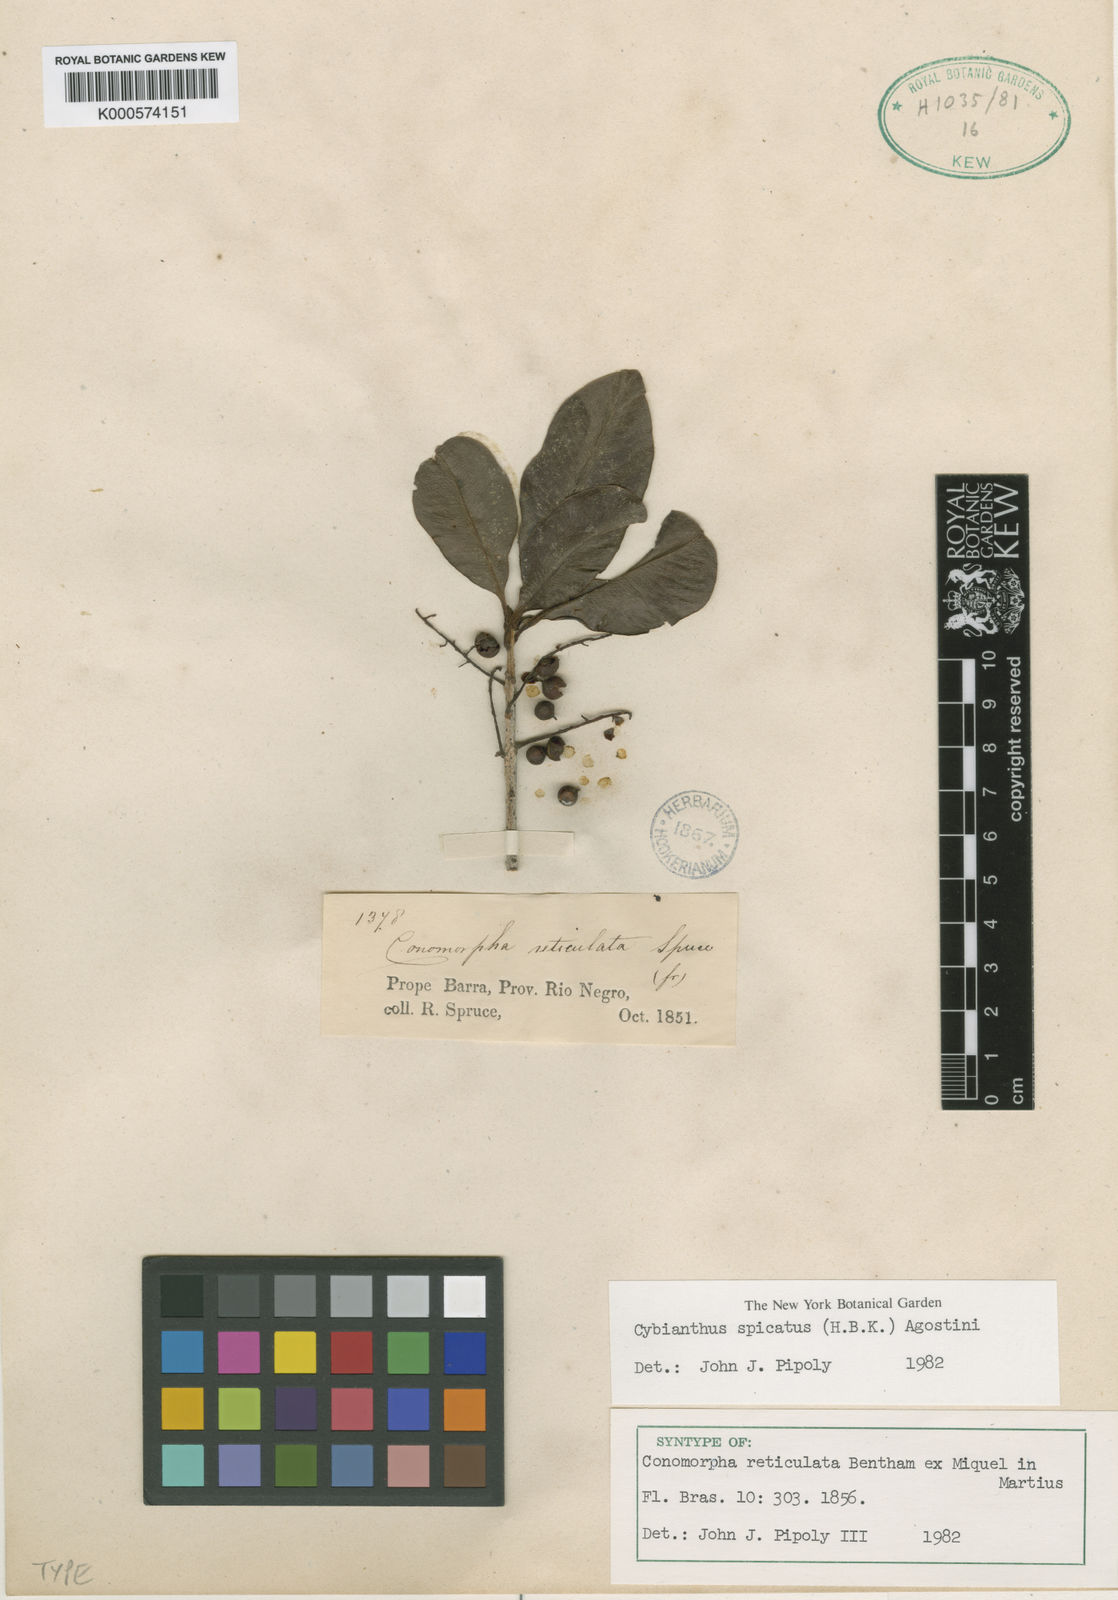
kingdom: Plantae
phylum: Tracheophyta
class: Magnoliopsida
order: Ericales
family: Primulaceae
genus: Cybianthus
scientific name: Cybianthus spicatus
